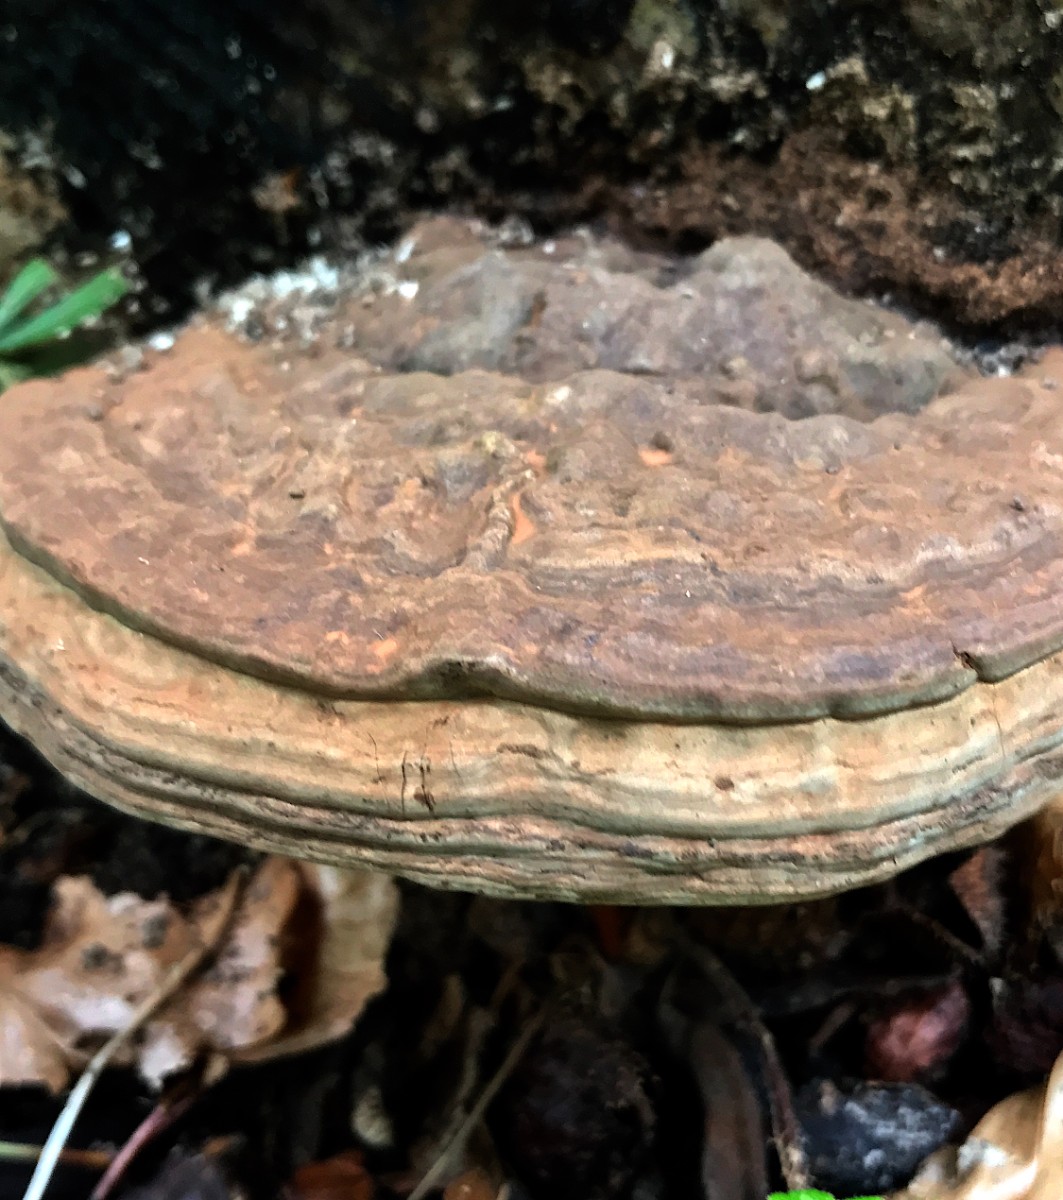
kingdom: Fungi
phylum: Basidiomycota
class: Agaricomycetes
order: Polyporales
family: Polyporaceae
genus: Ganoderma
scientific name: Ganoderma applanatum
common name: flad lakporesvamp
